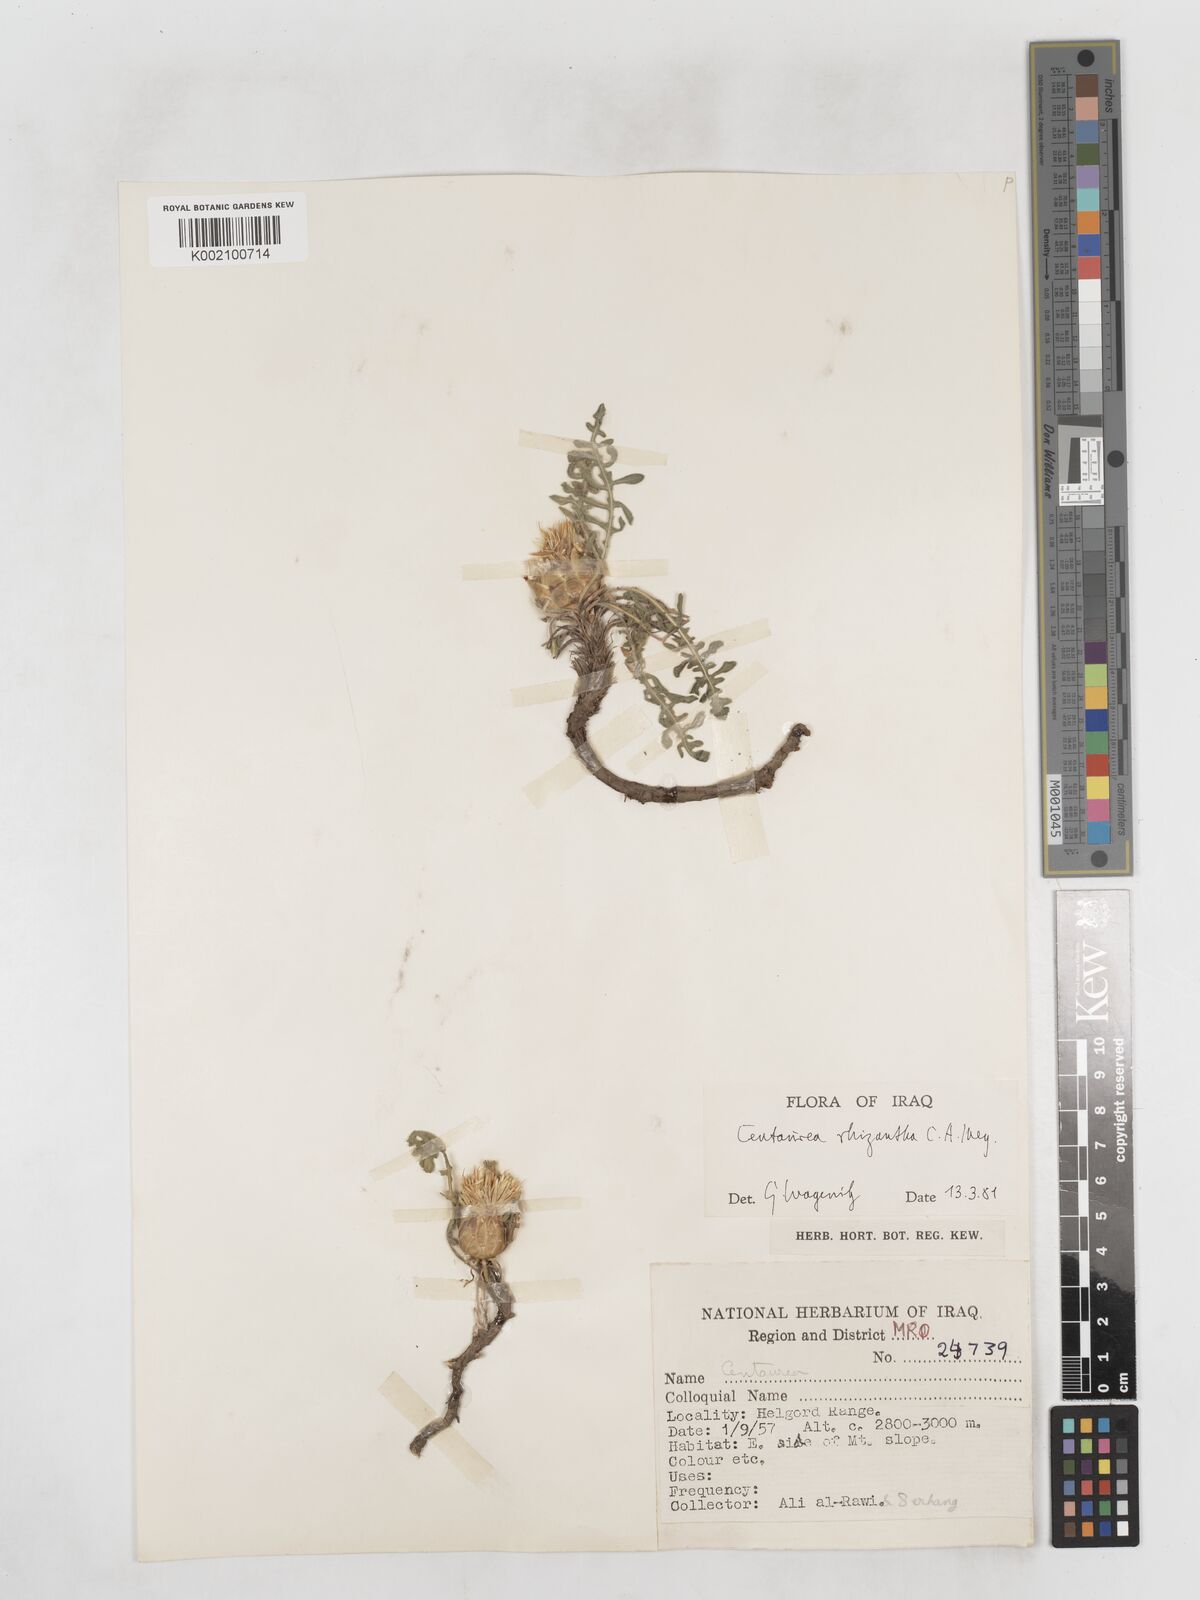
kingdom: Plantae
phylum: Tracheophyta
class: Magnoliopsida
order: Asterales
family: Asteraceae
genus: Centaurea
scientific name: Centaurea rhizantha
